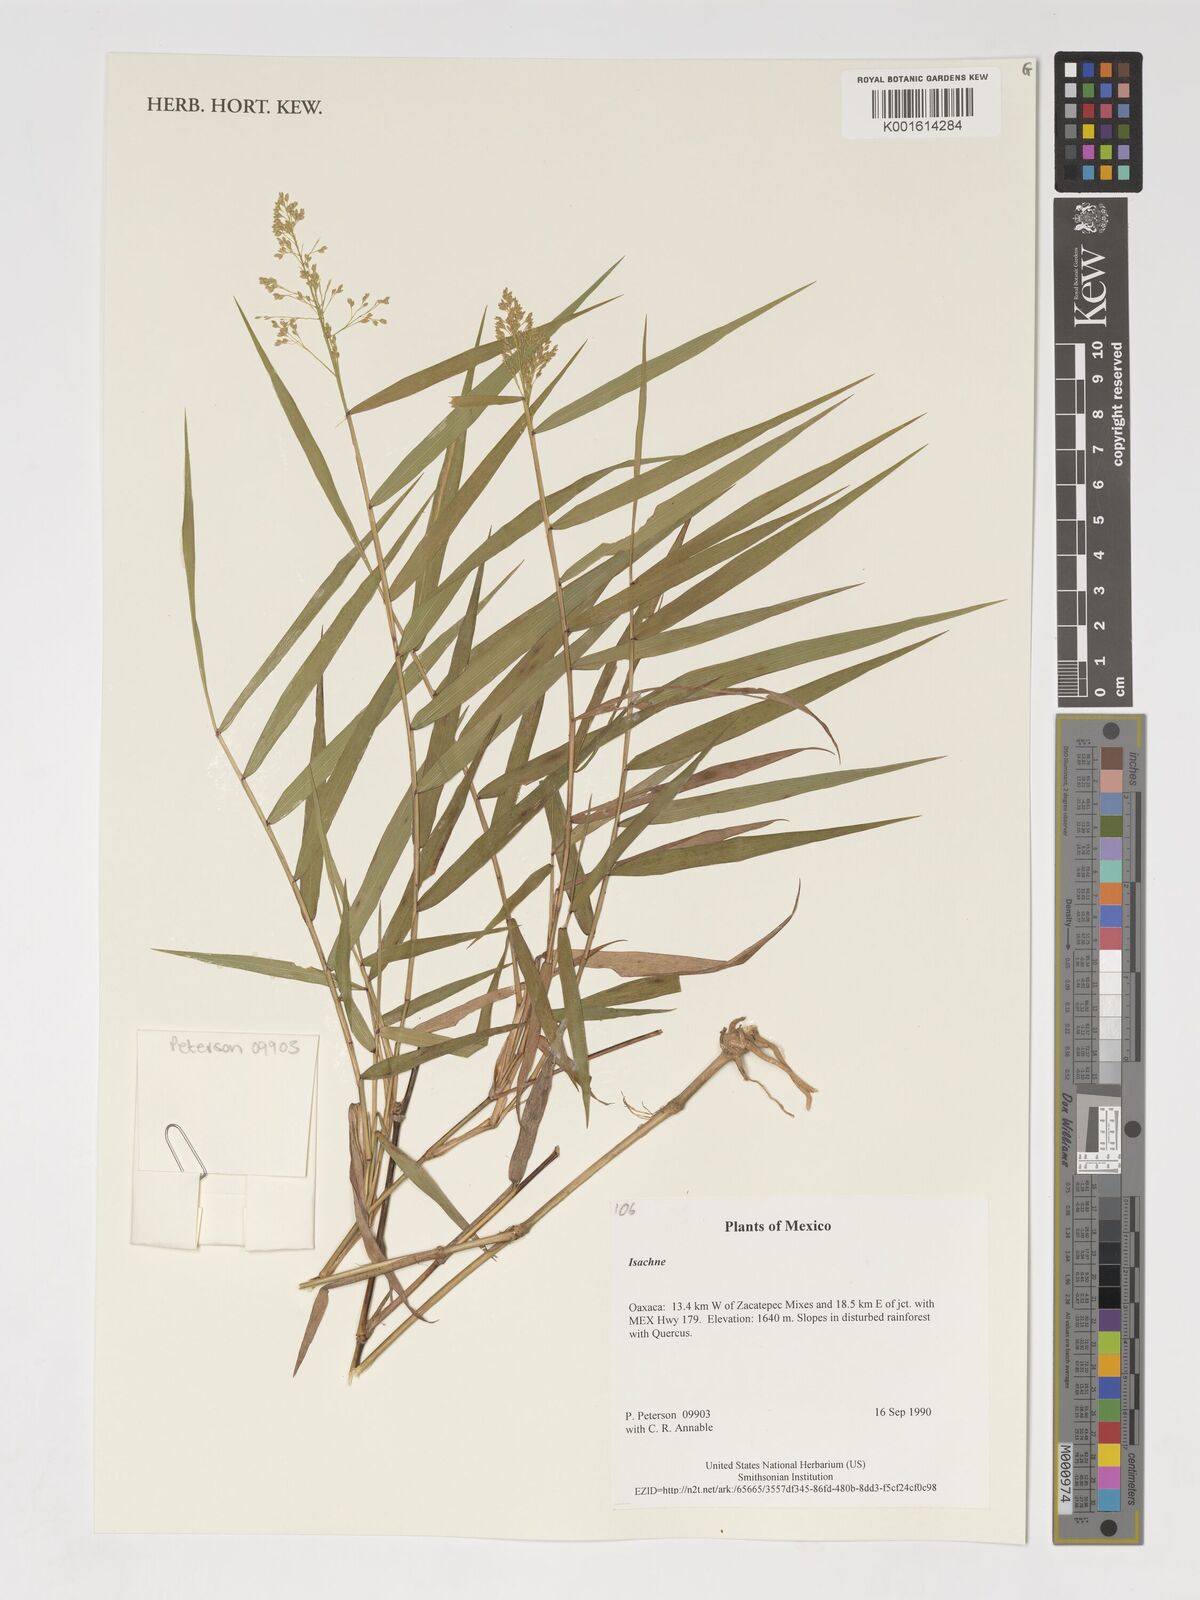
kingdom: Plantae
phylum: Tracheophyta
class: Liliopsida
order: Poales
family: Poaceae
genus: Isachne
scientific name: Isachne
